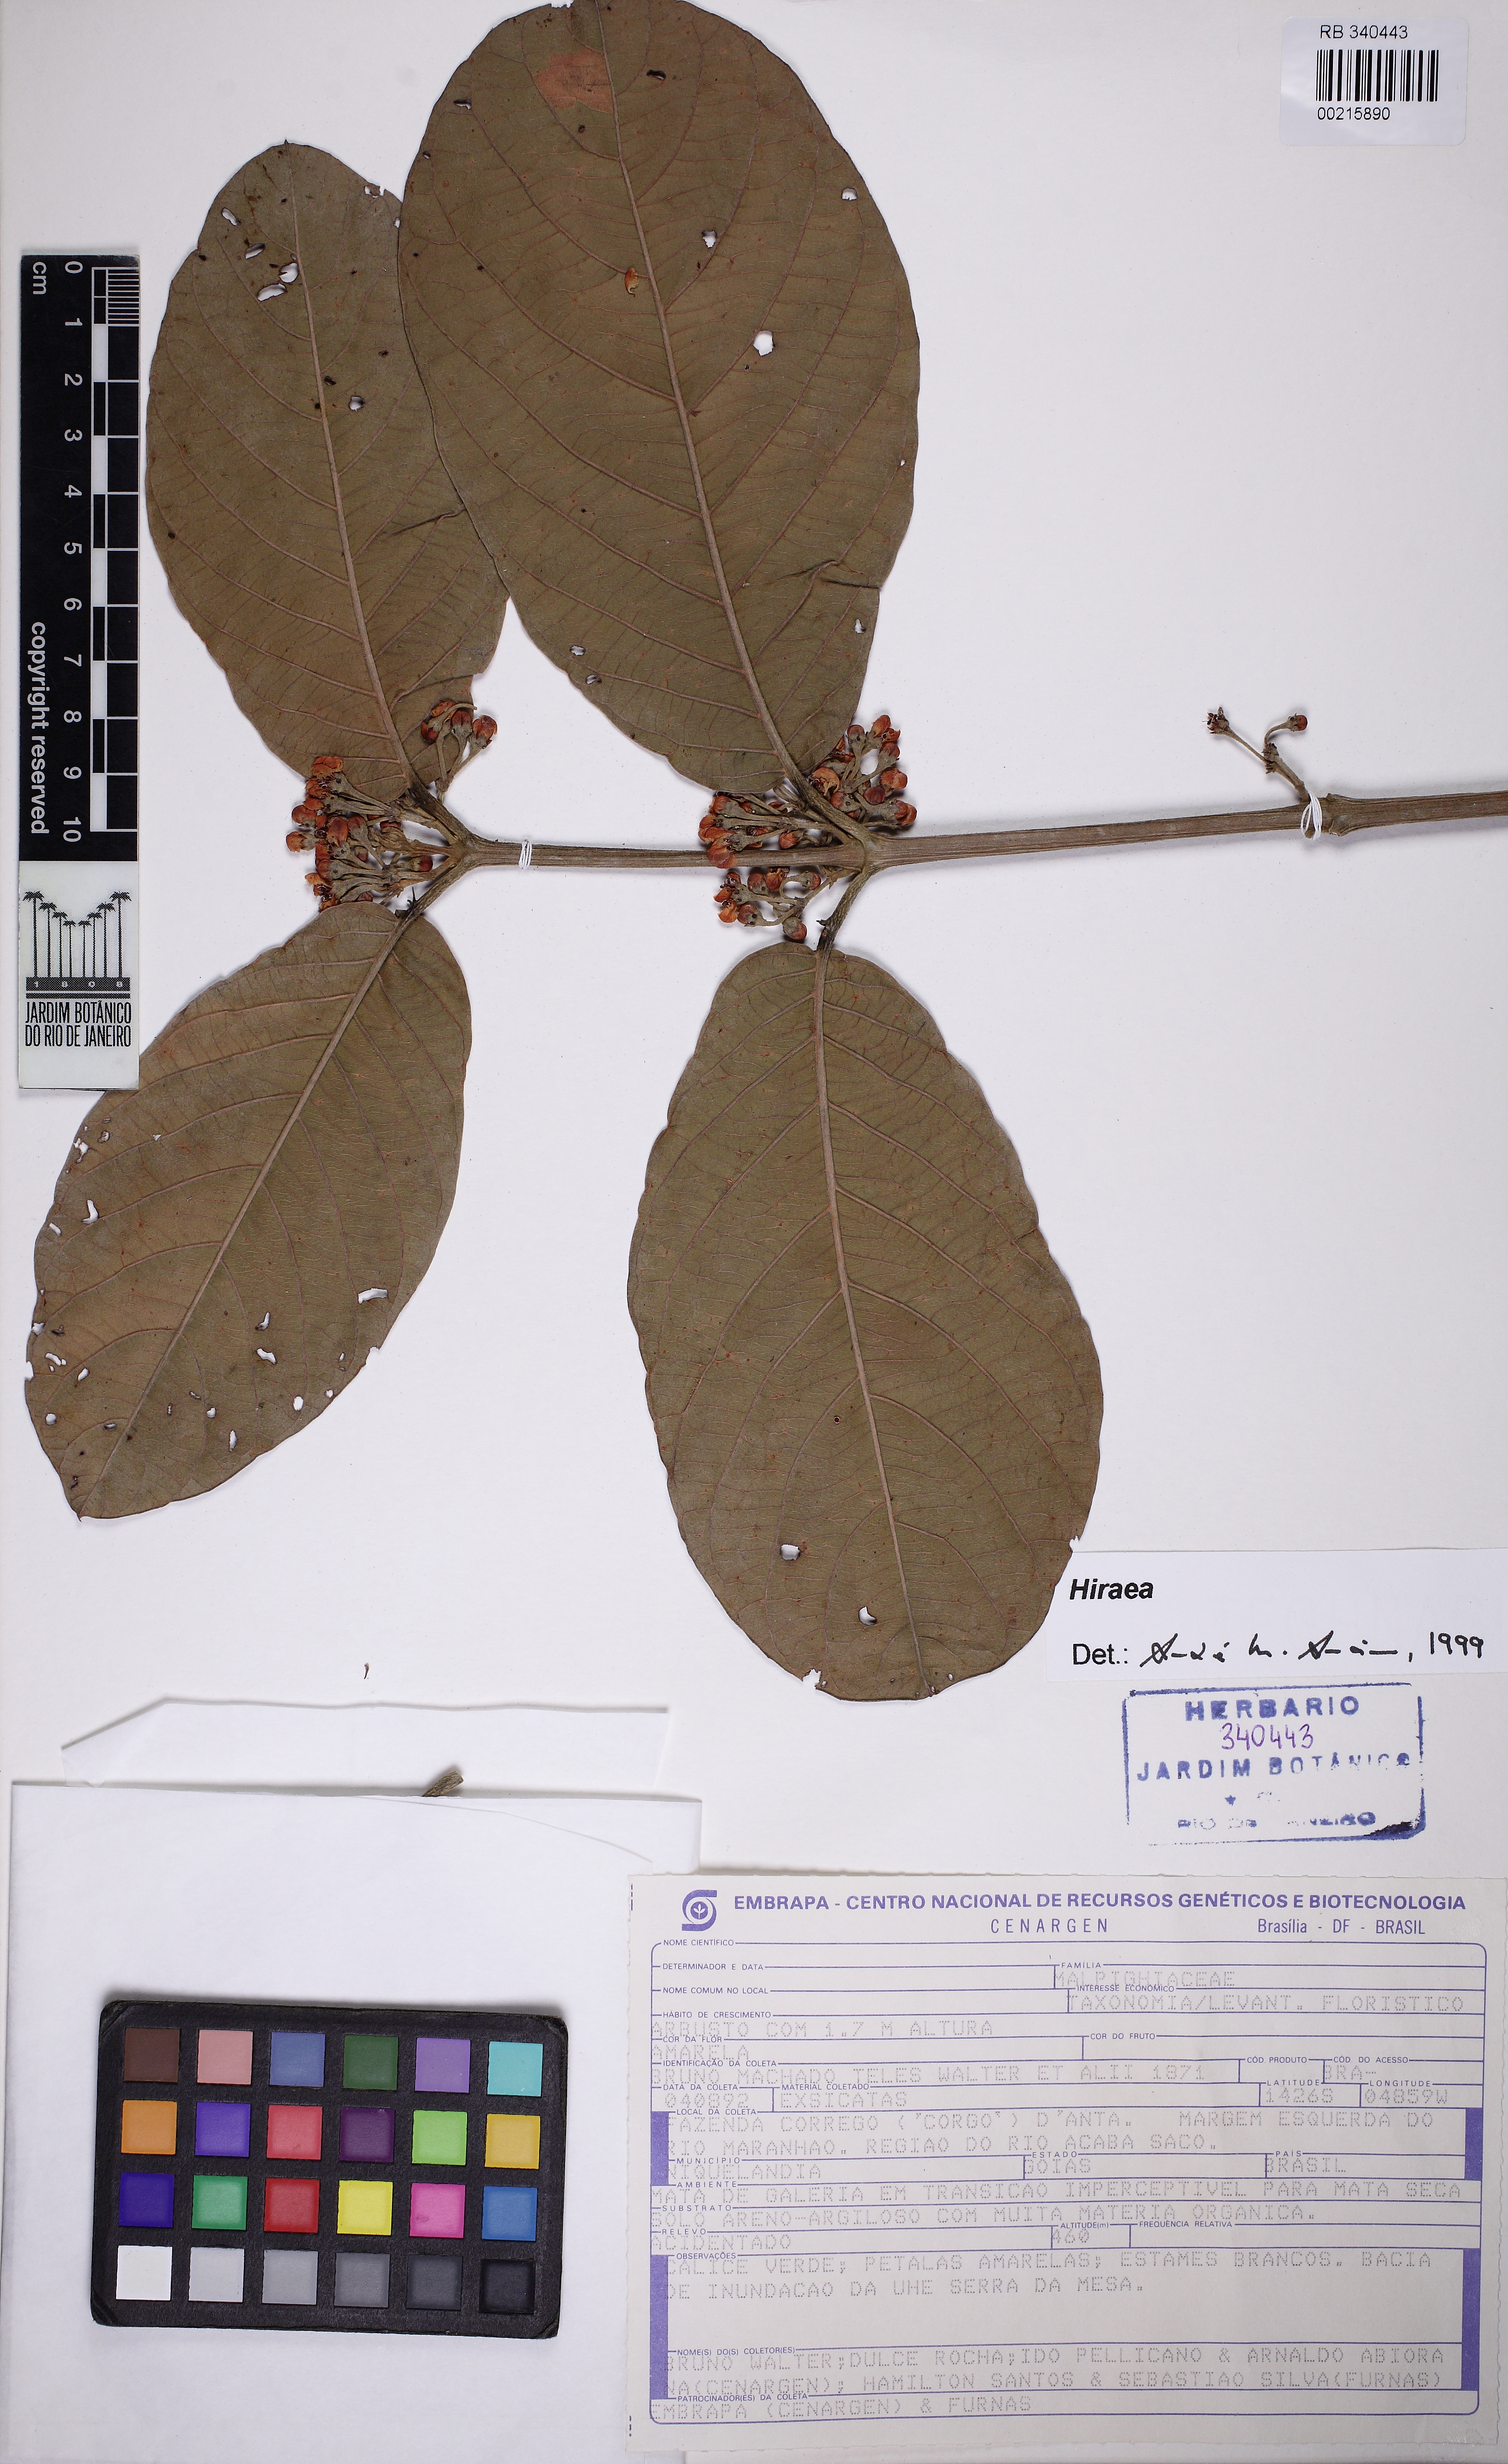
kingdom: Plantae
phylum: Tracheophyta
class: Magnoliopsida
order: Malpighiales
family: Malpighiaceae
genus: Hiraea
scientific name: Hiraea
